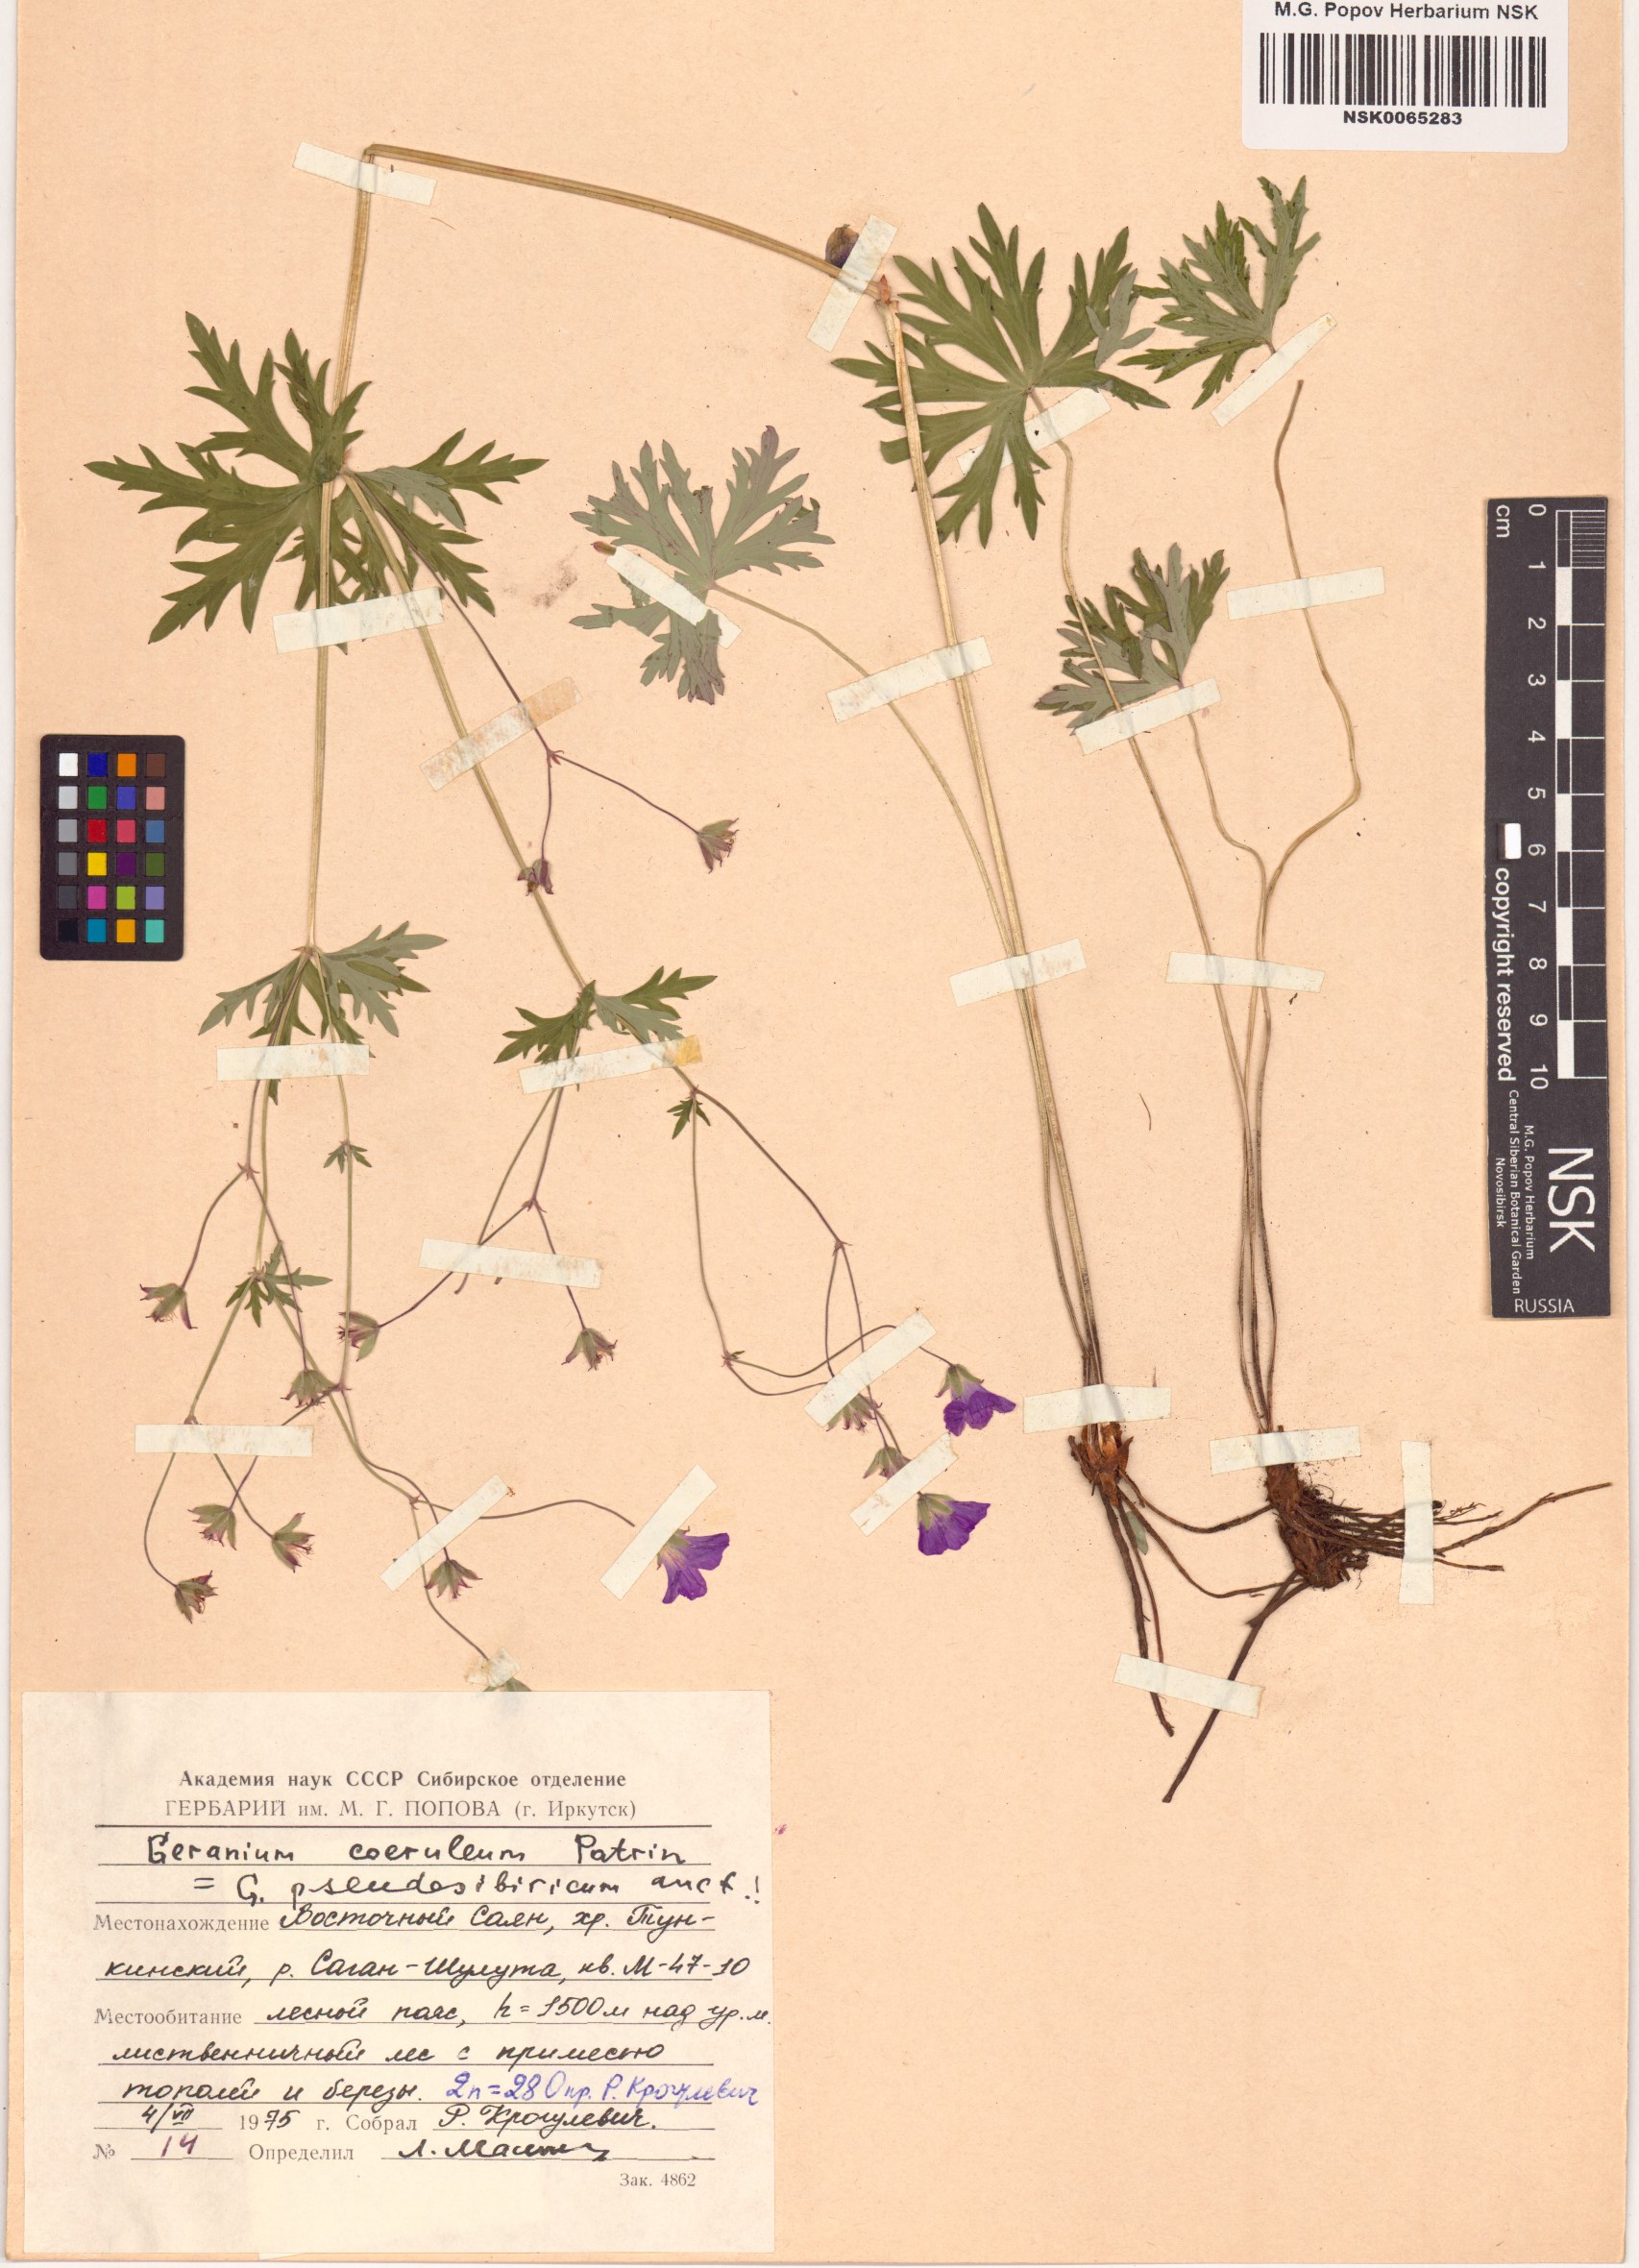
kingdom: Plantae
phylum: Tracheophyta
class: Magnoliopsida
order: Geraniales
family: Geraniaceae
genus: Geranium
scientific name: Geranium pseudosibiricum
